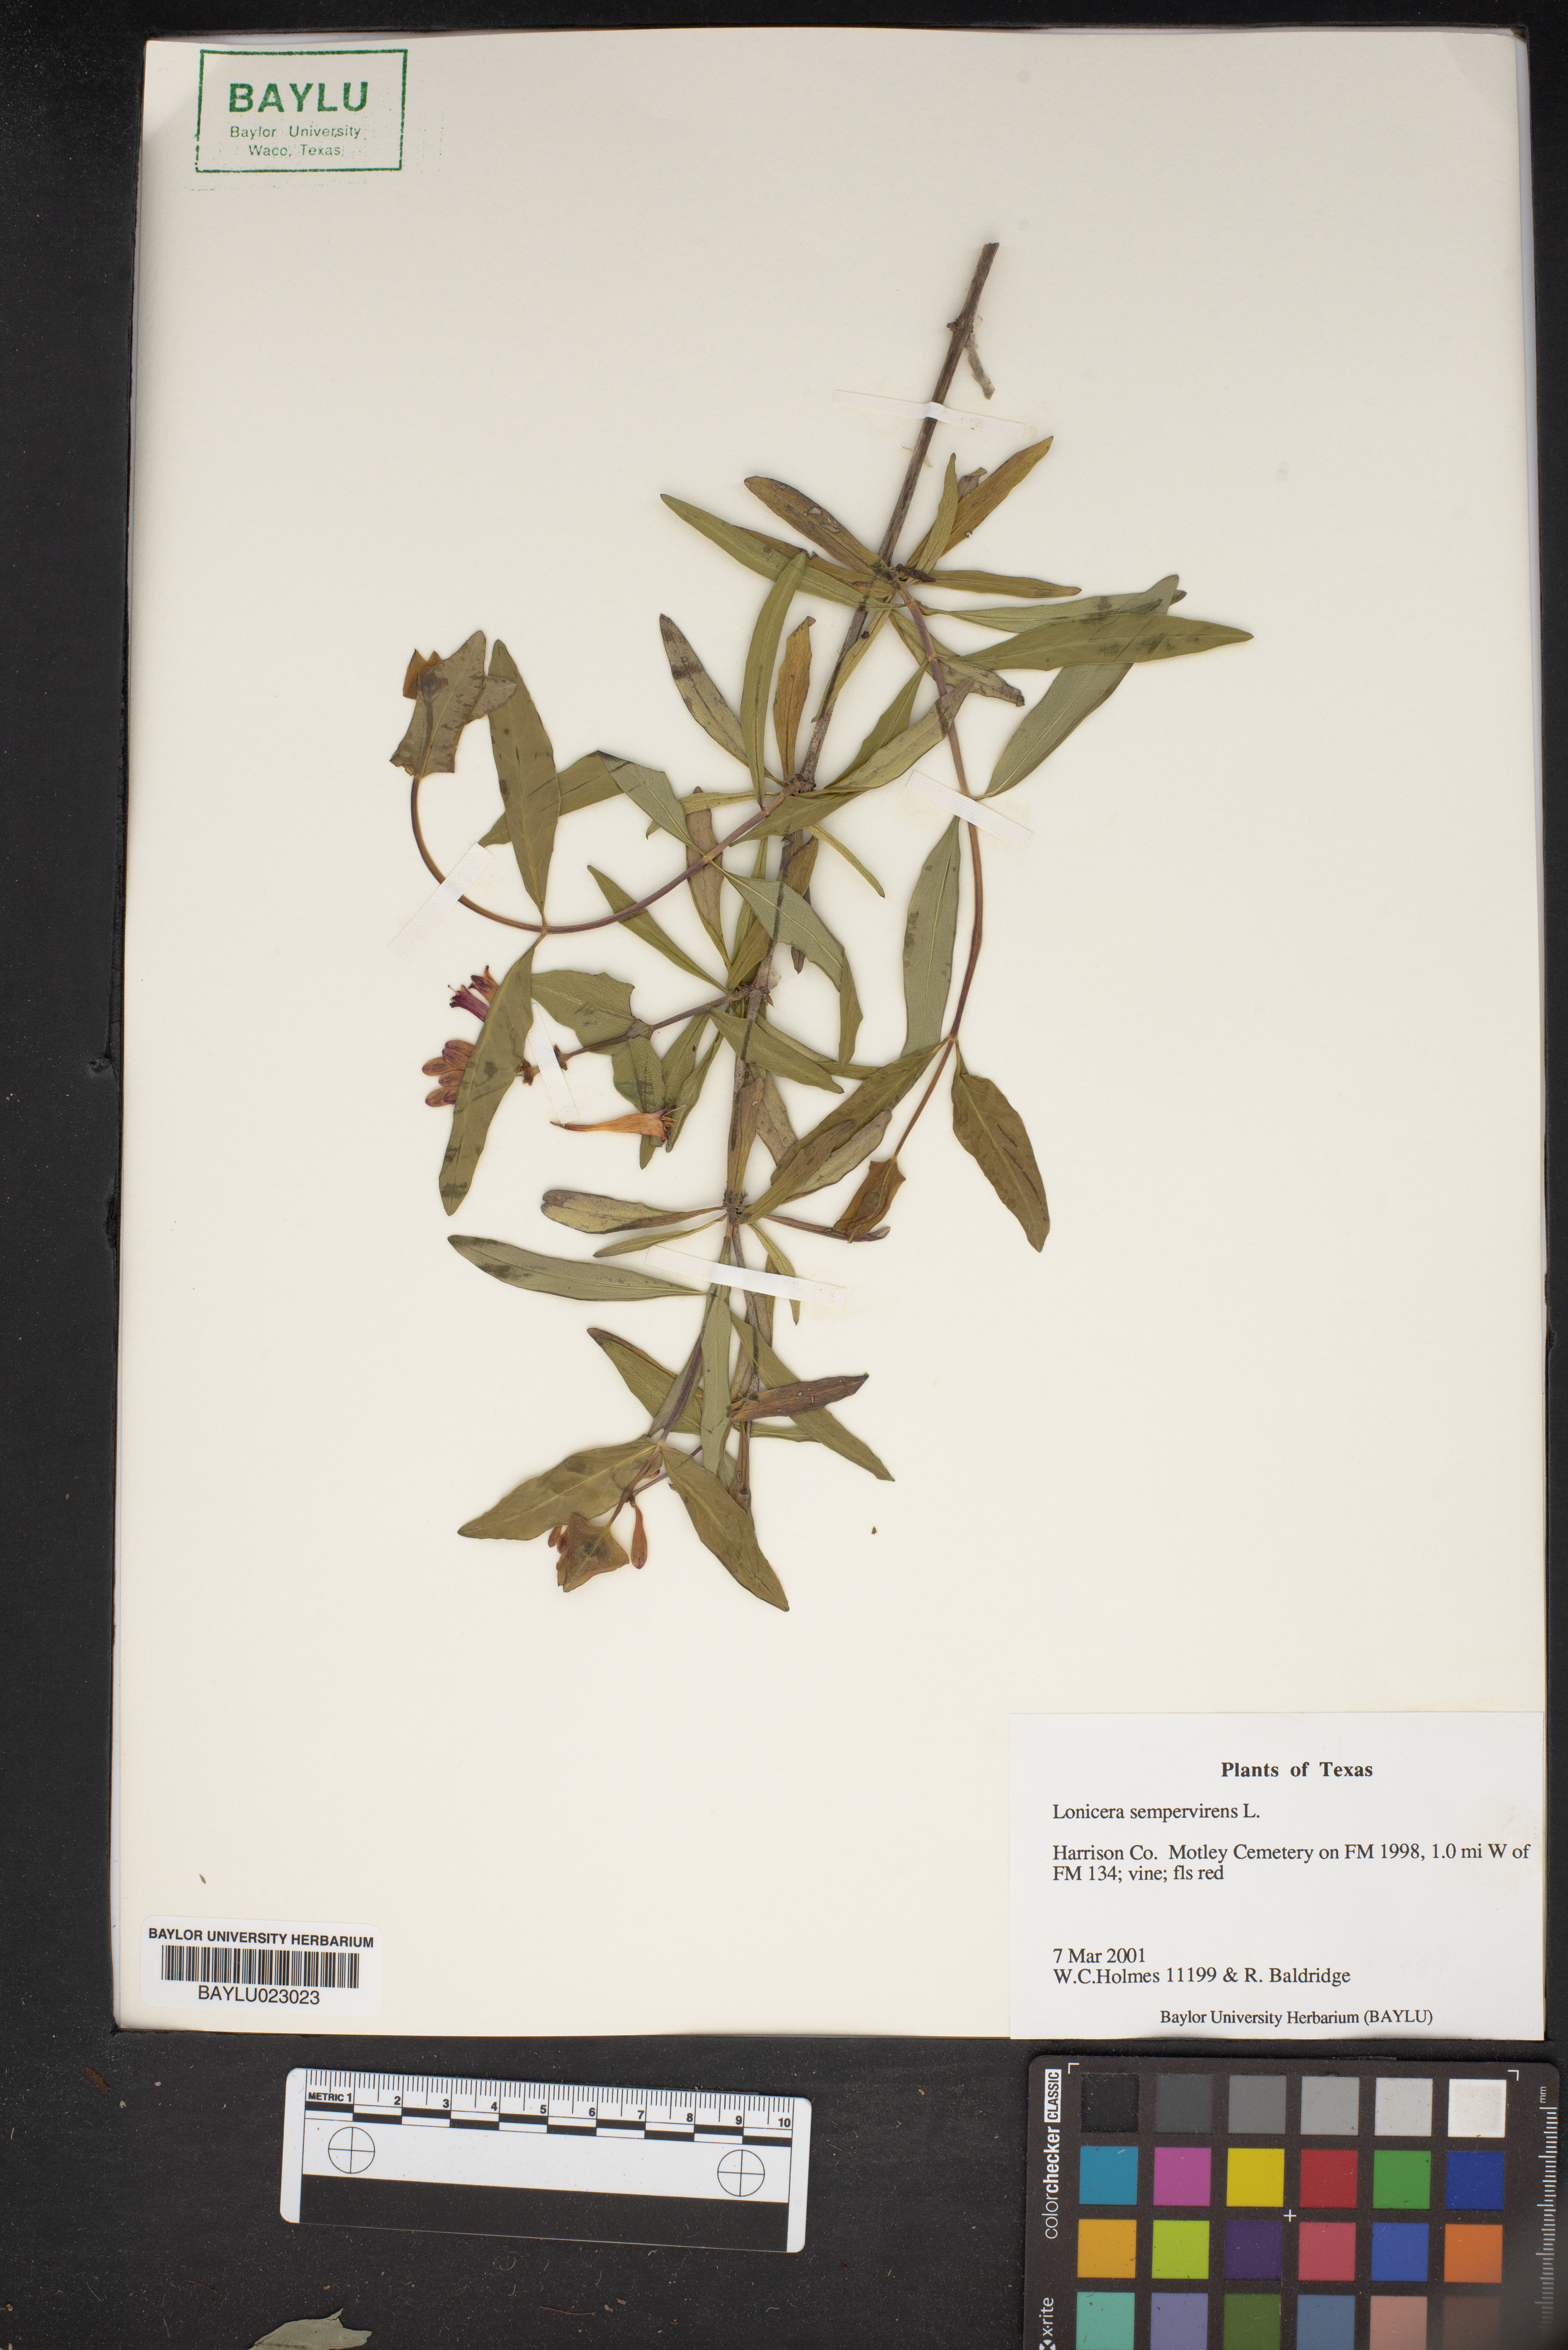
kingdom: Plantae
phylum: Tracheophyta
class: Magnoliopsida
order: Dipsacales
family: Caprifoliaceae
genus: Lonicera
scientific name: Lonicera sempervirens
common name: Coral honeysuckle
